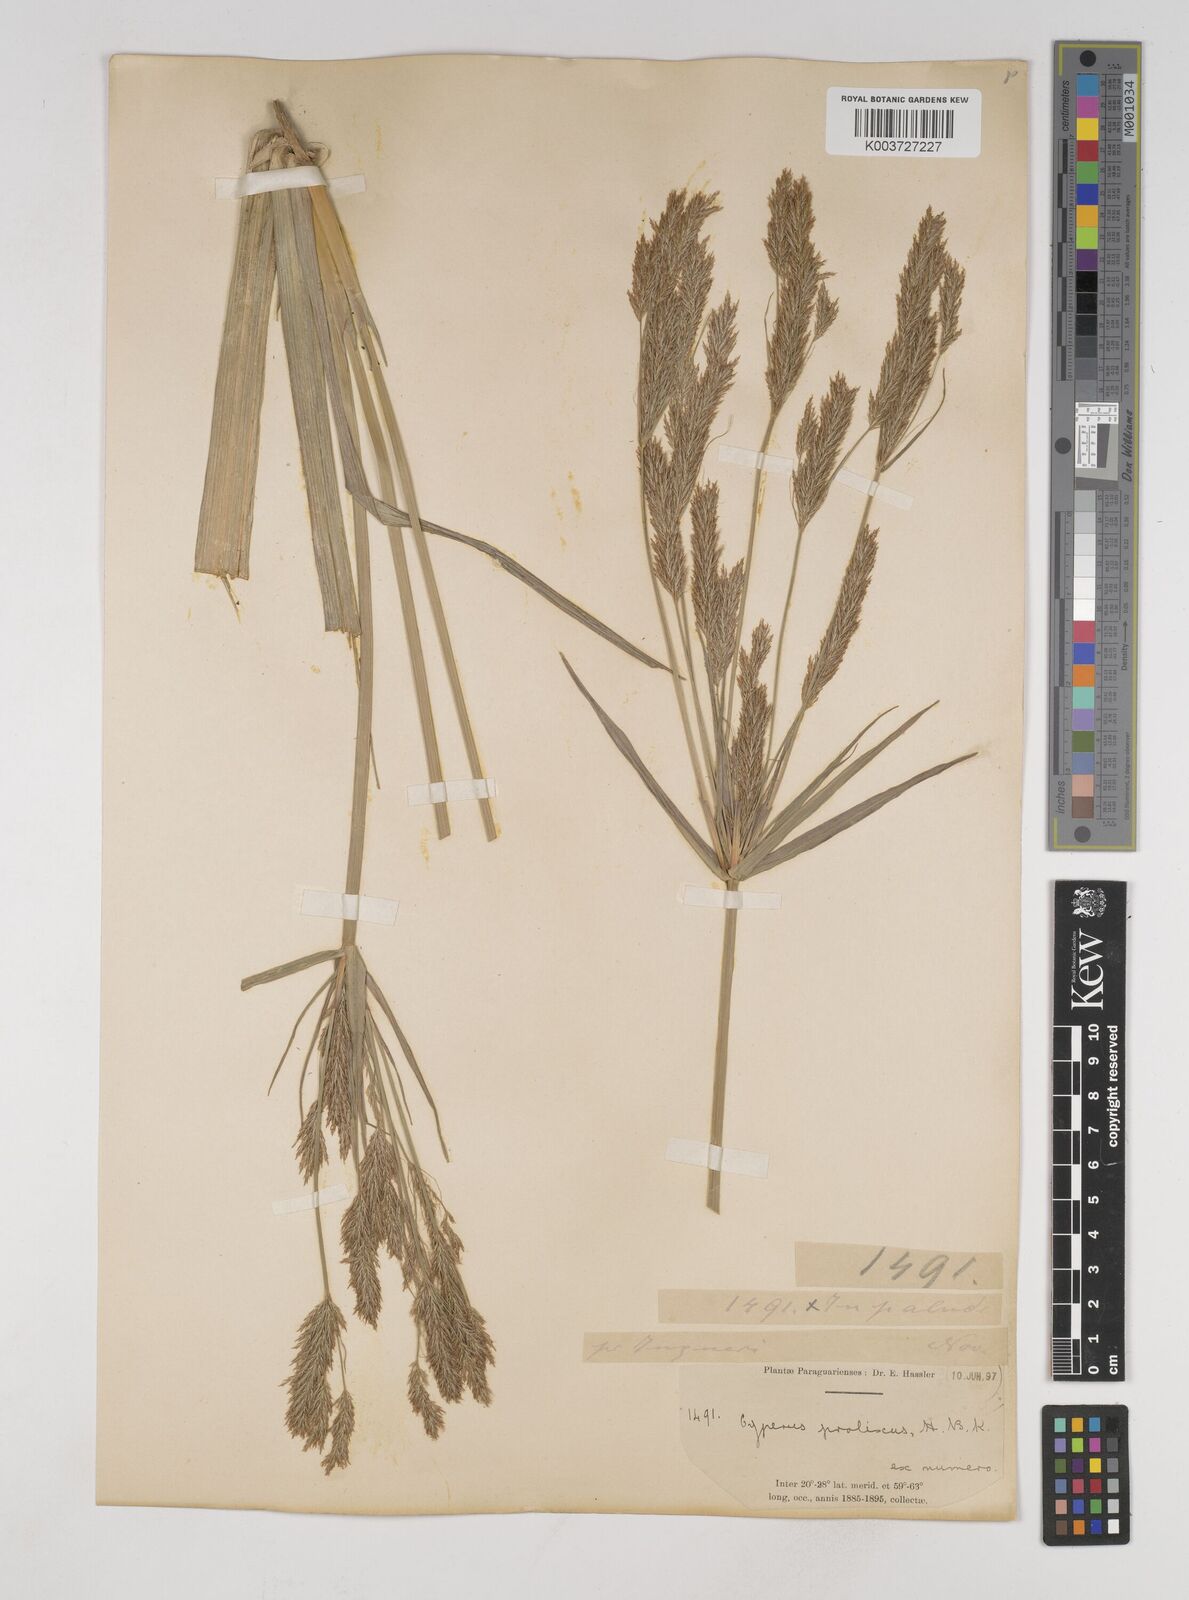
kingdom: Plantae
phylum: Tracheophyta
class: Liliopsida
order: Poales
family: Cyperaceae
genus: Cyperus
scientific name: Cyperus prolixus
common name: Mosquito flatsedge
